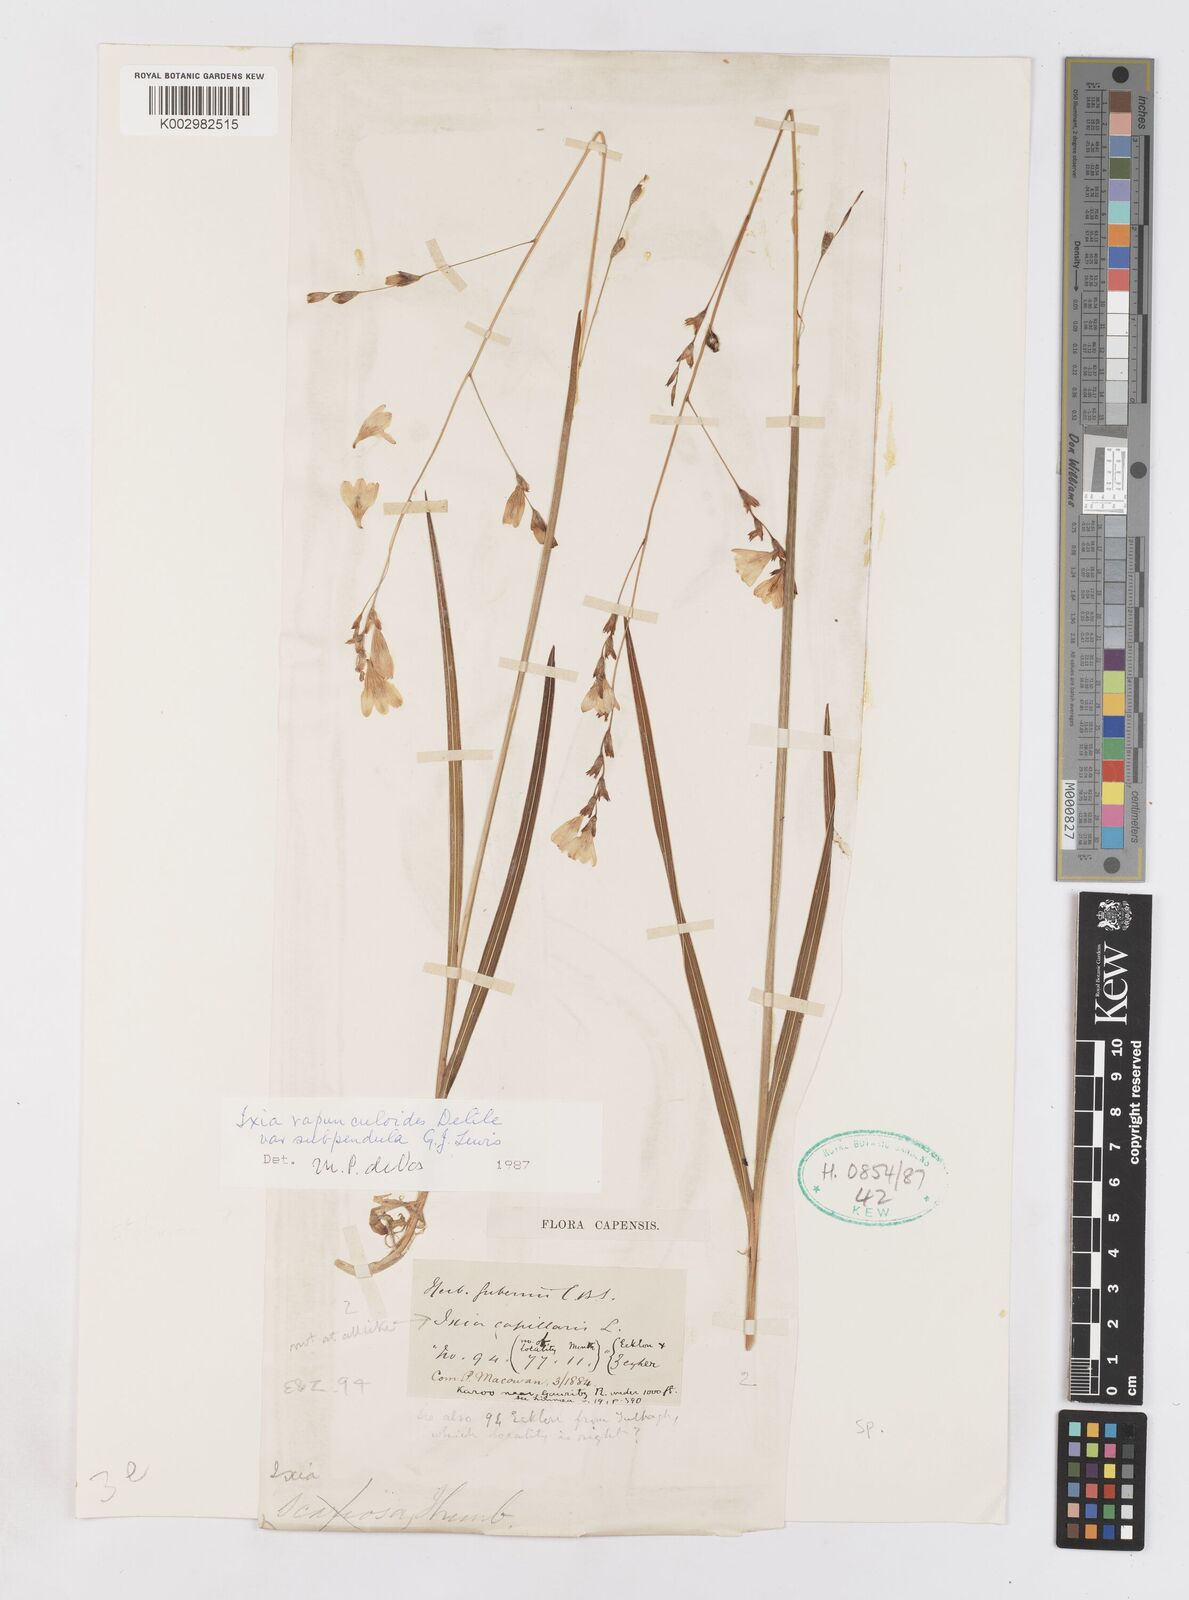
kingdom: Plantae
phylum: Tracheophyta
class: Liliopsida
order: Asparagales
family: Iridaceae
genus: Ixia
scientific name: Ixia rapunculoides
